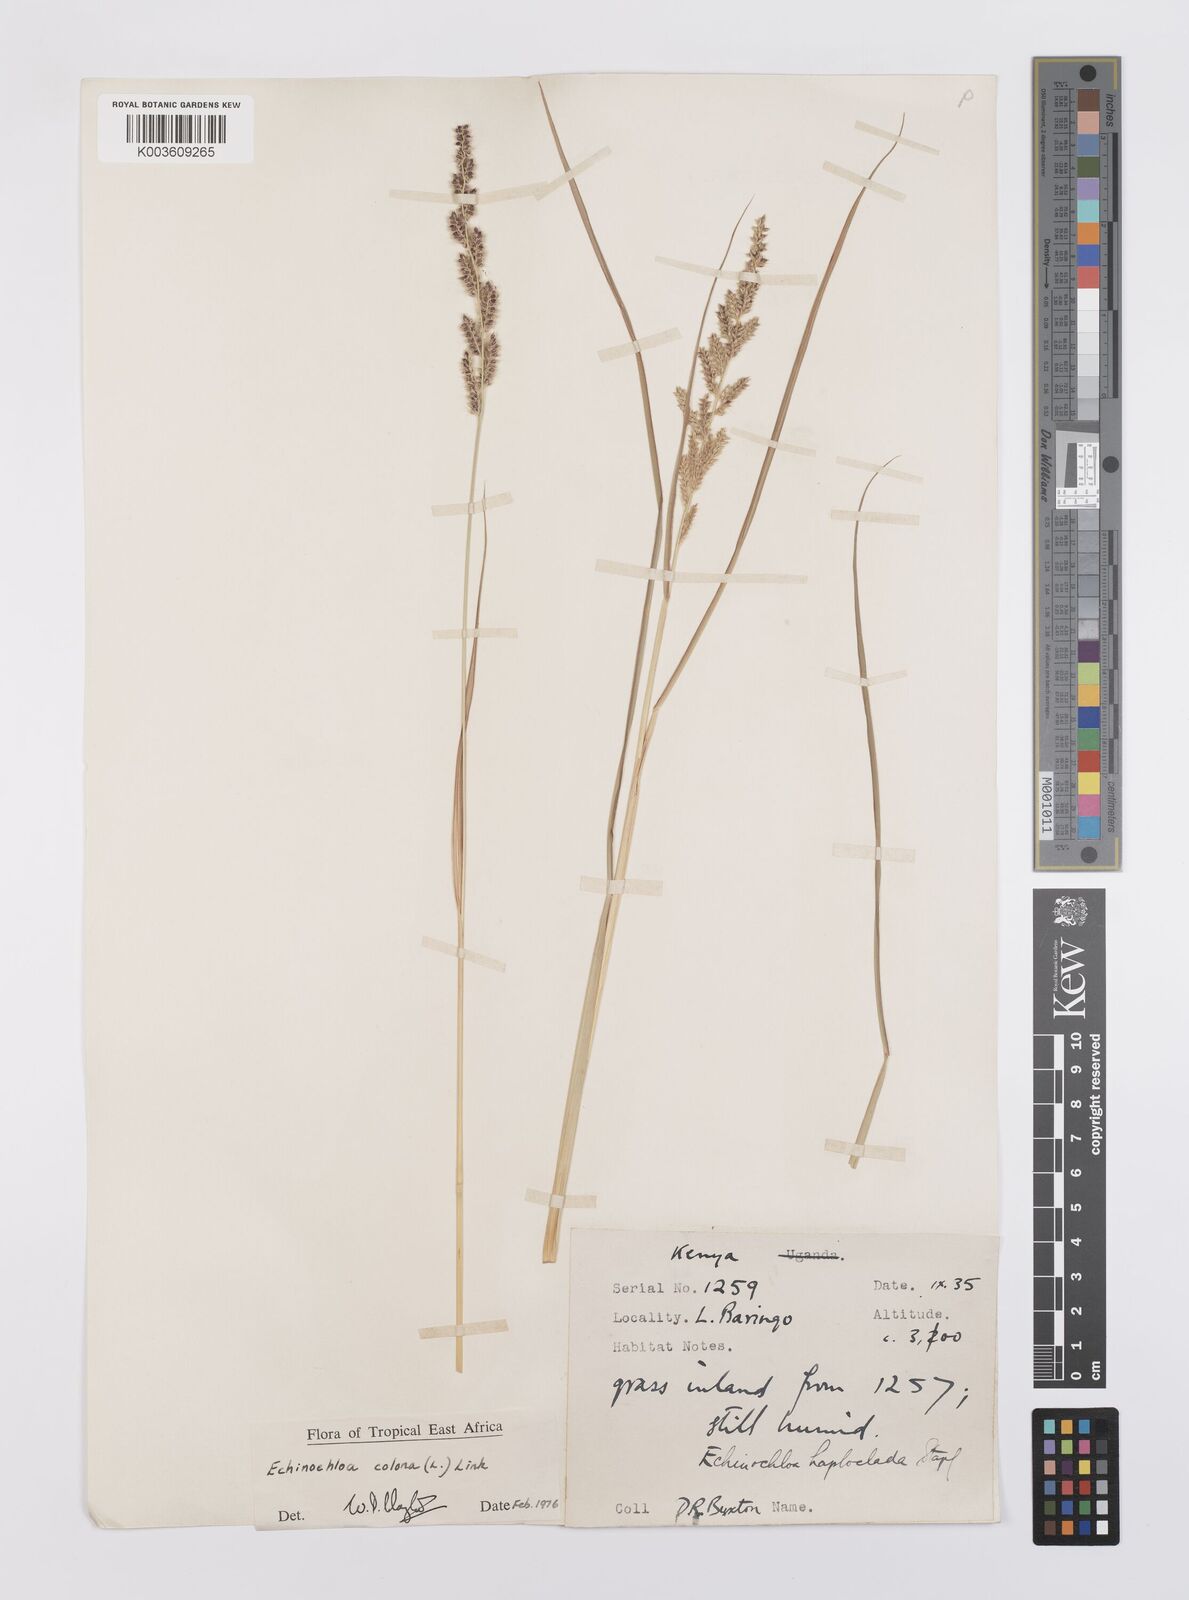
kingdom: Plantae
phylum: Tracheophyta
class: Liliopsida
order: Poales
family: Poaceae
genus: Echinochloa
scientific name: Echinochloa colonum
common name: Jungle rice
